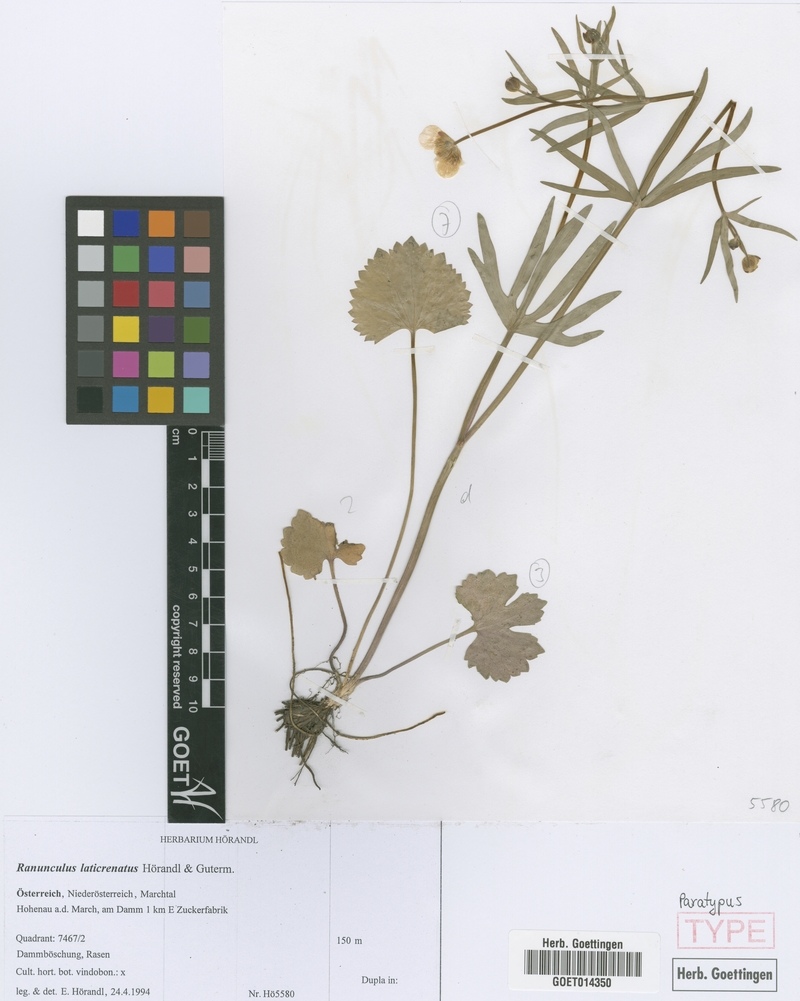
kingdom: Plantae
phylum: Tracheophyta
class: Magnoliopsida
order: Ranunculales
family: Ranunculaceae
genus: Ranunculus
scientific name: Ranunculus laticrenatus
